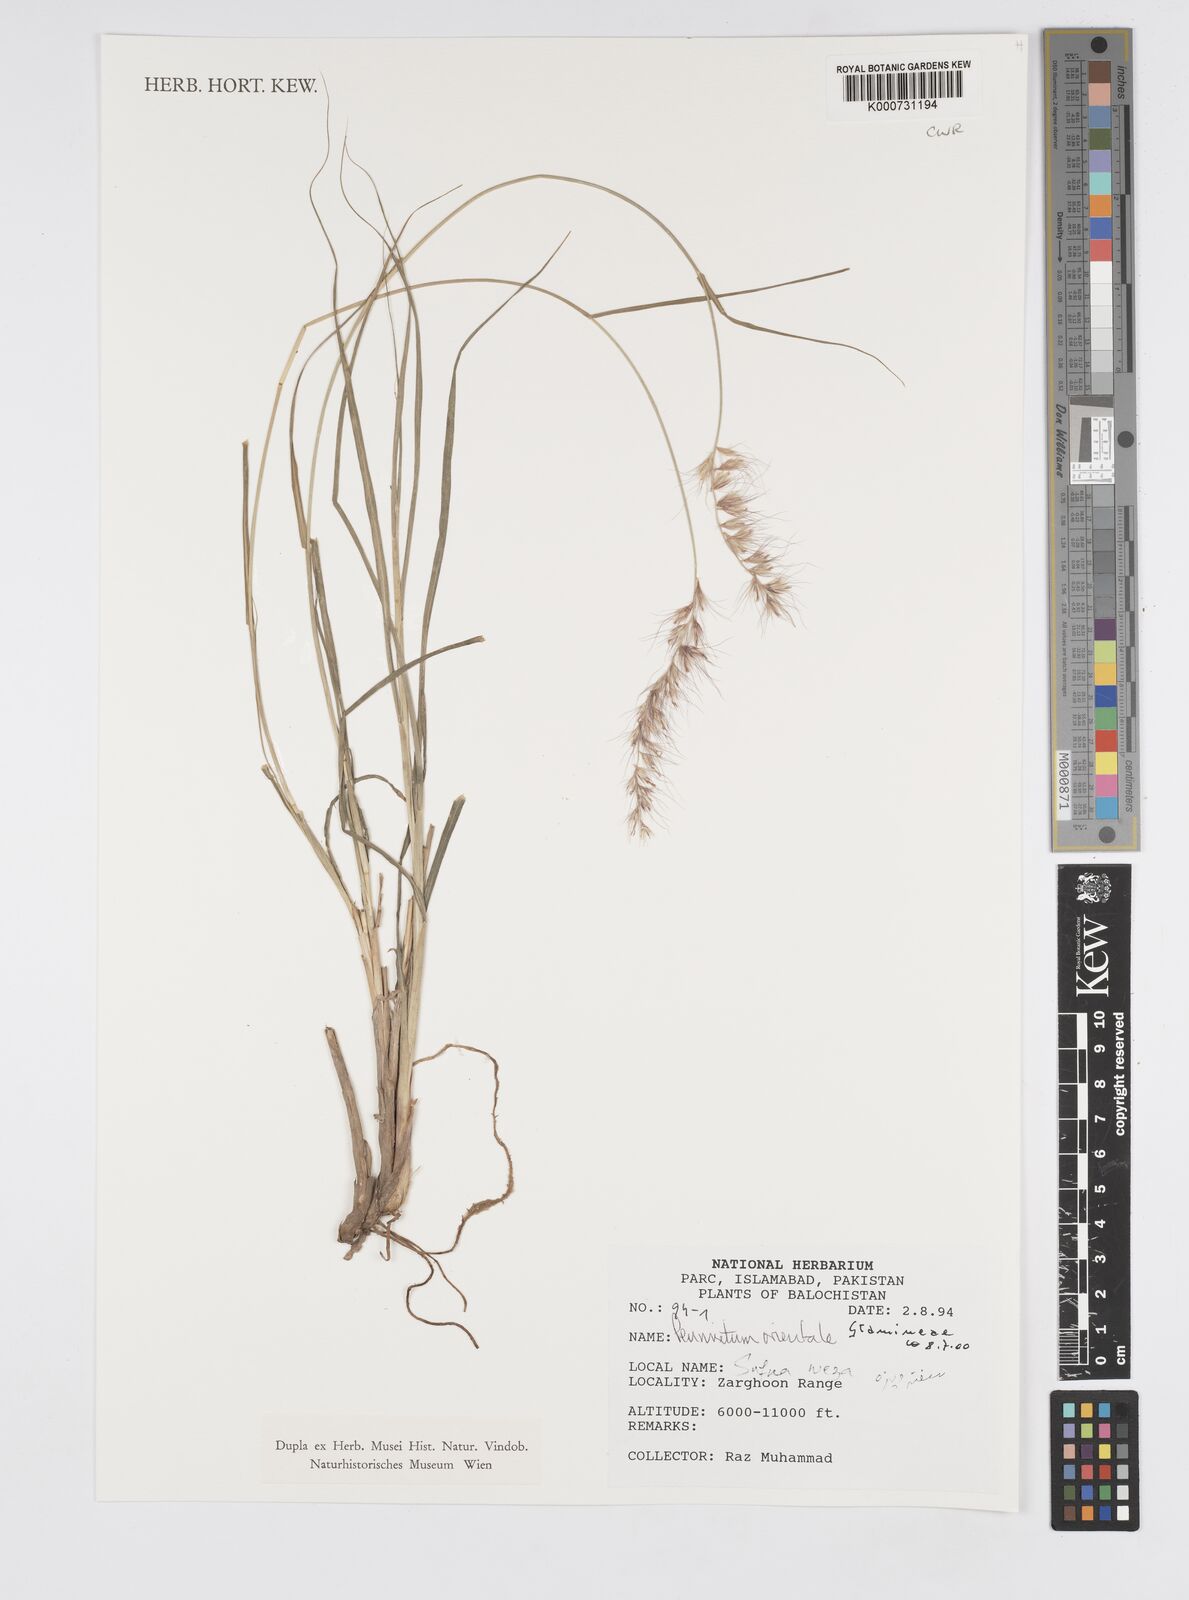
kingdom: Plantae
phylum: Tracheophyta
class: Liliopsida
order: Poales
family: Poaceae
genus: Cenchrus
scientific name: Cenchrus orientalis
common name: Oriental fountain grass
